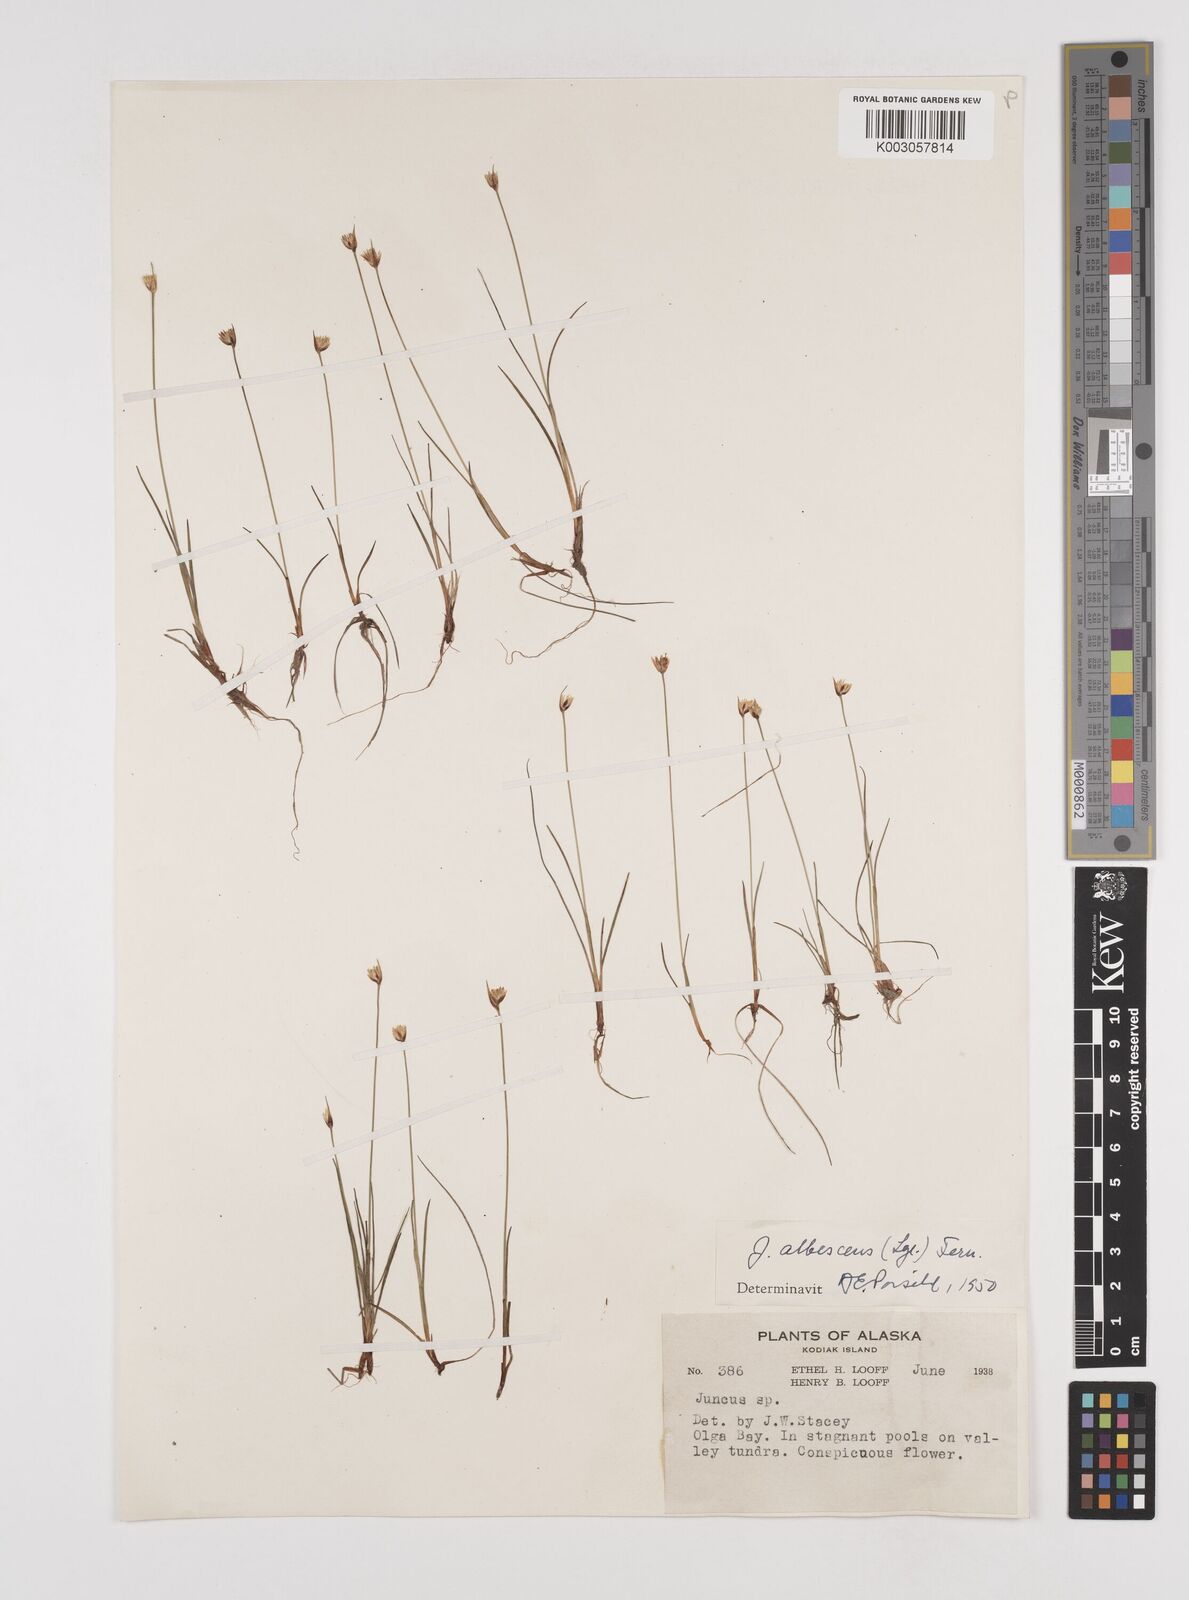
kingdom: Plantae
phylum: Tracheophyta
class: Liliopsida
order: Poales
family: Juncaceae
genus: Juncus
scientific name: Juncus albescens
